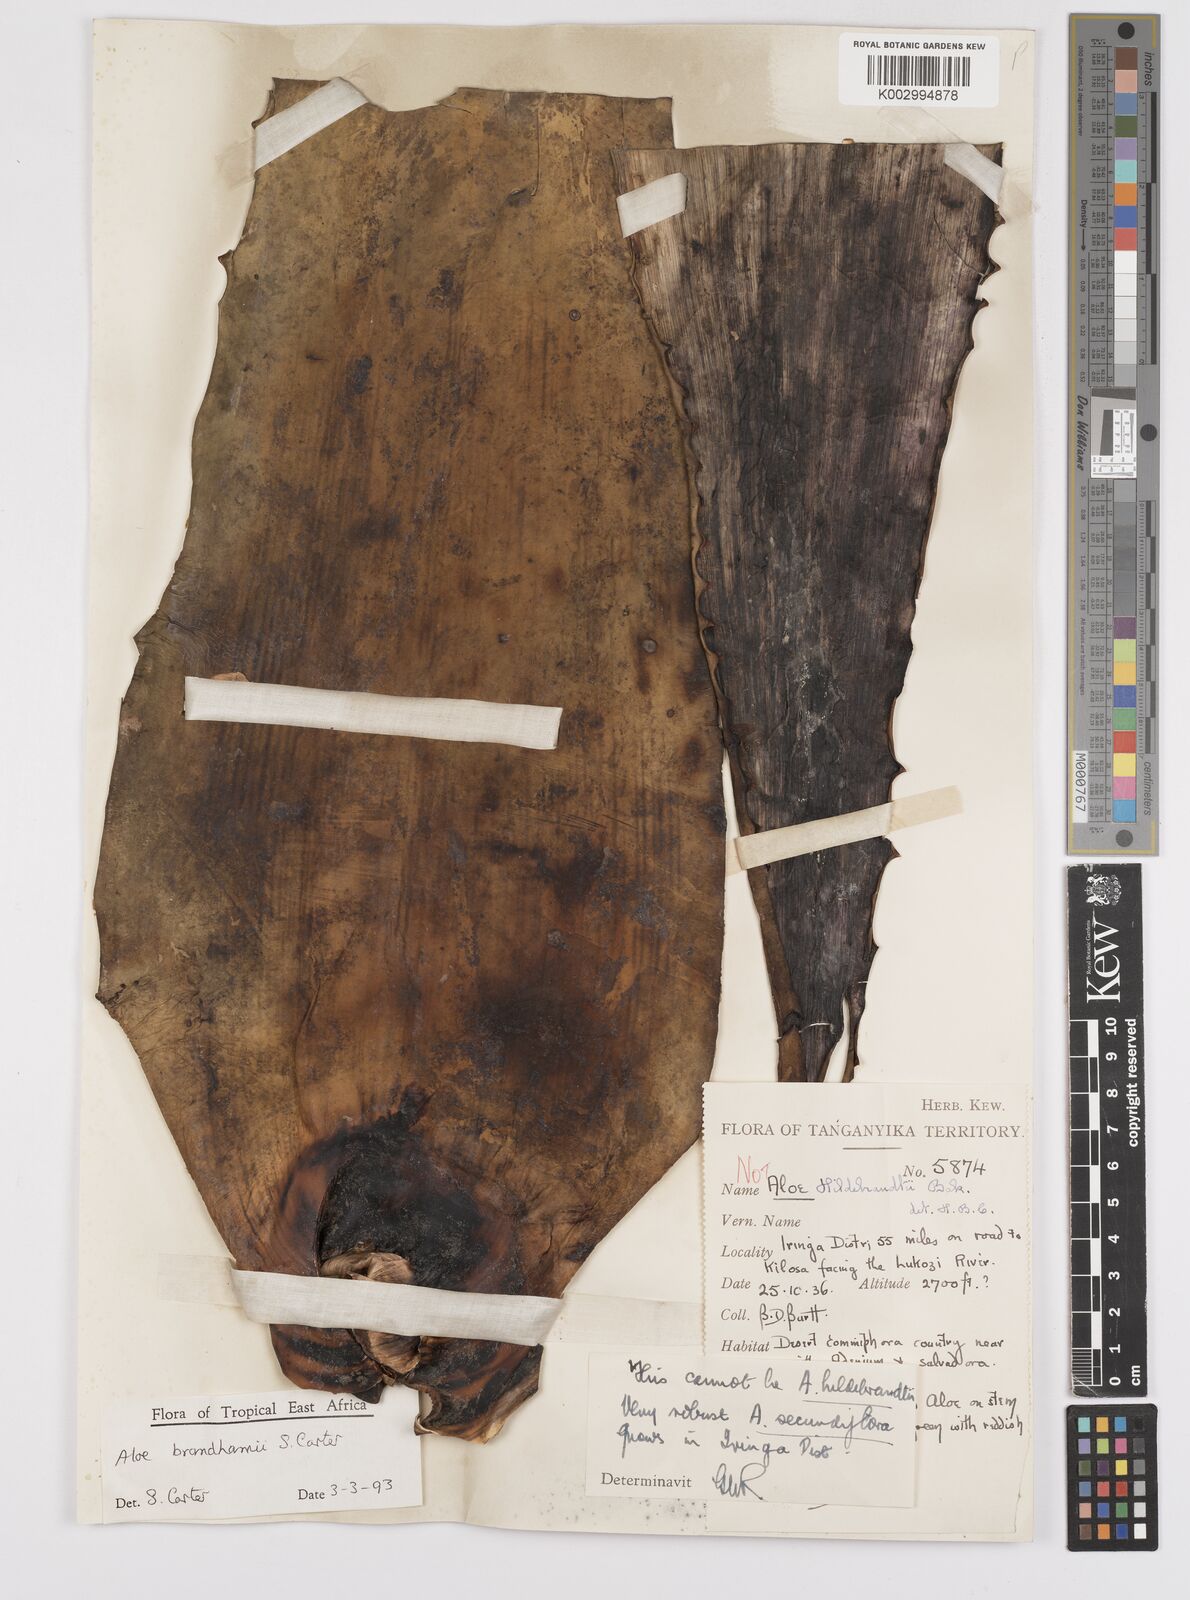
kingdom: Plantae
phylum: Tracheophyta
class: Liliopsida
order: Asparagales
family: Asphodelaceae
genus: Aloe
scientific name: Aloe brandhamii
